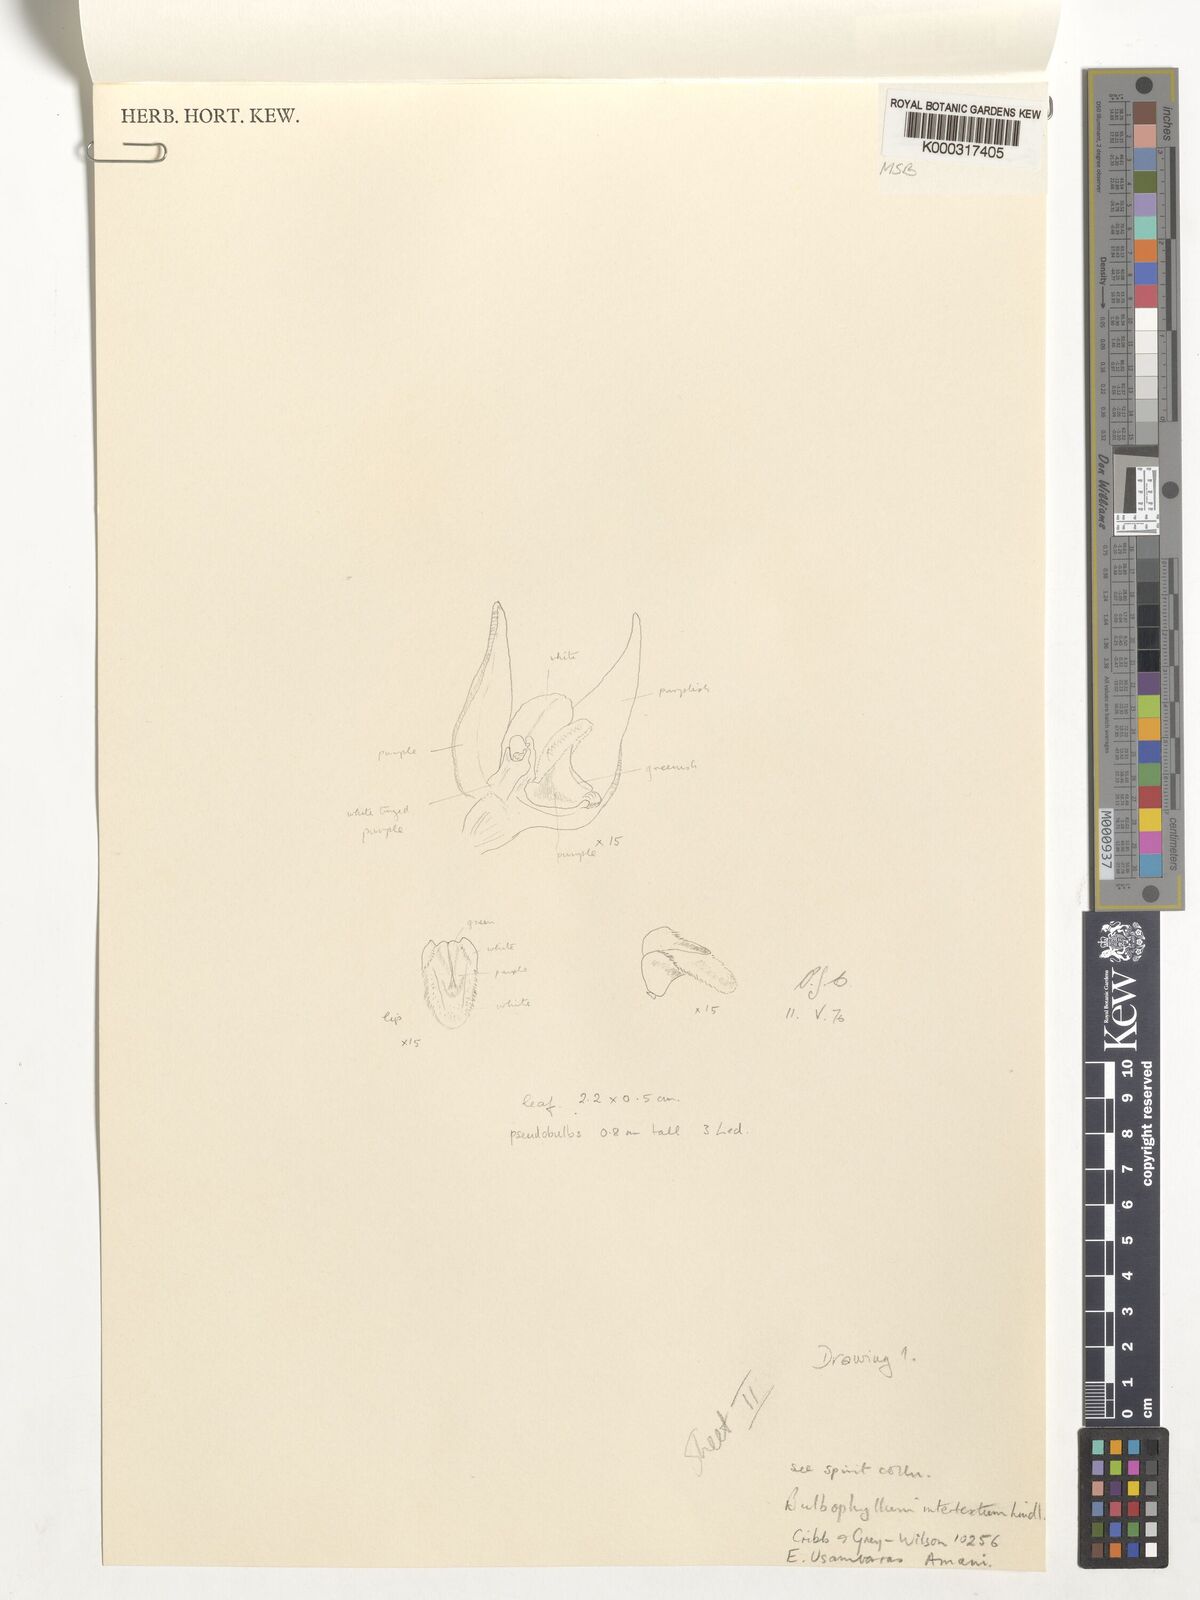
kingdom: Plantae
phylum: Tracheophyta
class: Liliopsida
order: Asparagales
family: Orchidaceae
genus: Bulbophyllum
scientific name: Bulbophyllum intertextum
